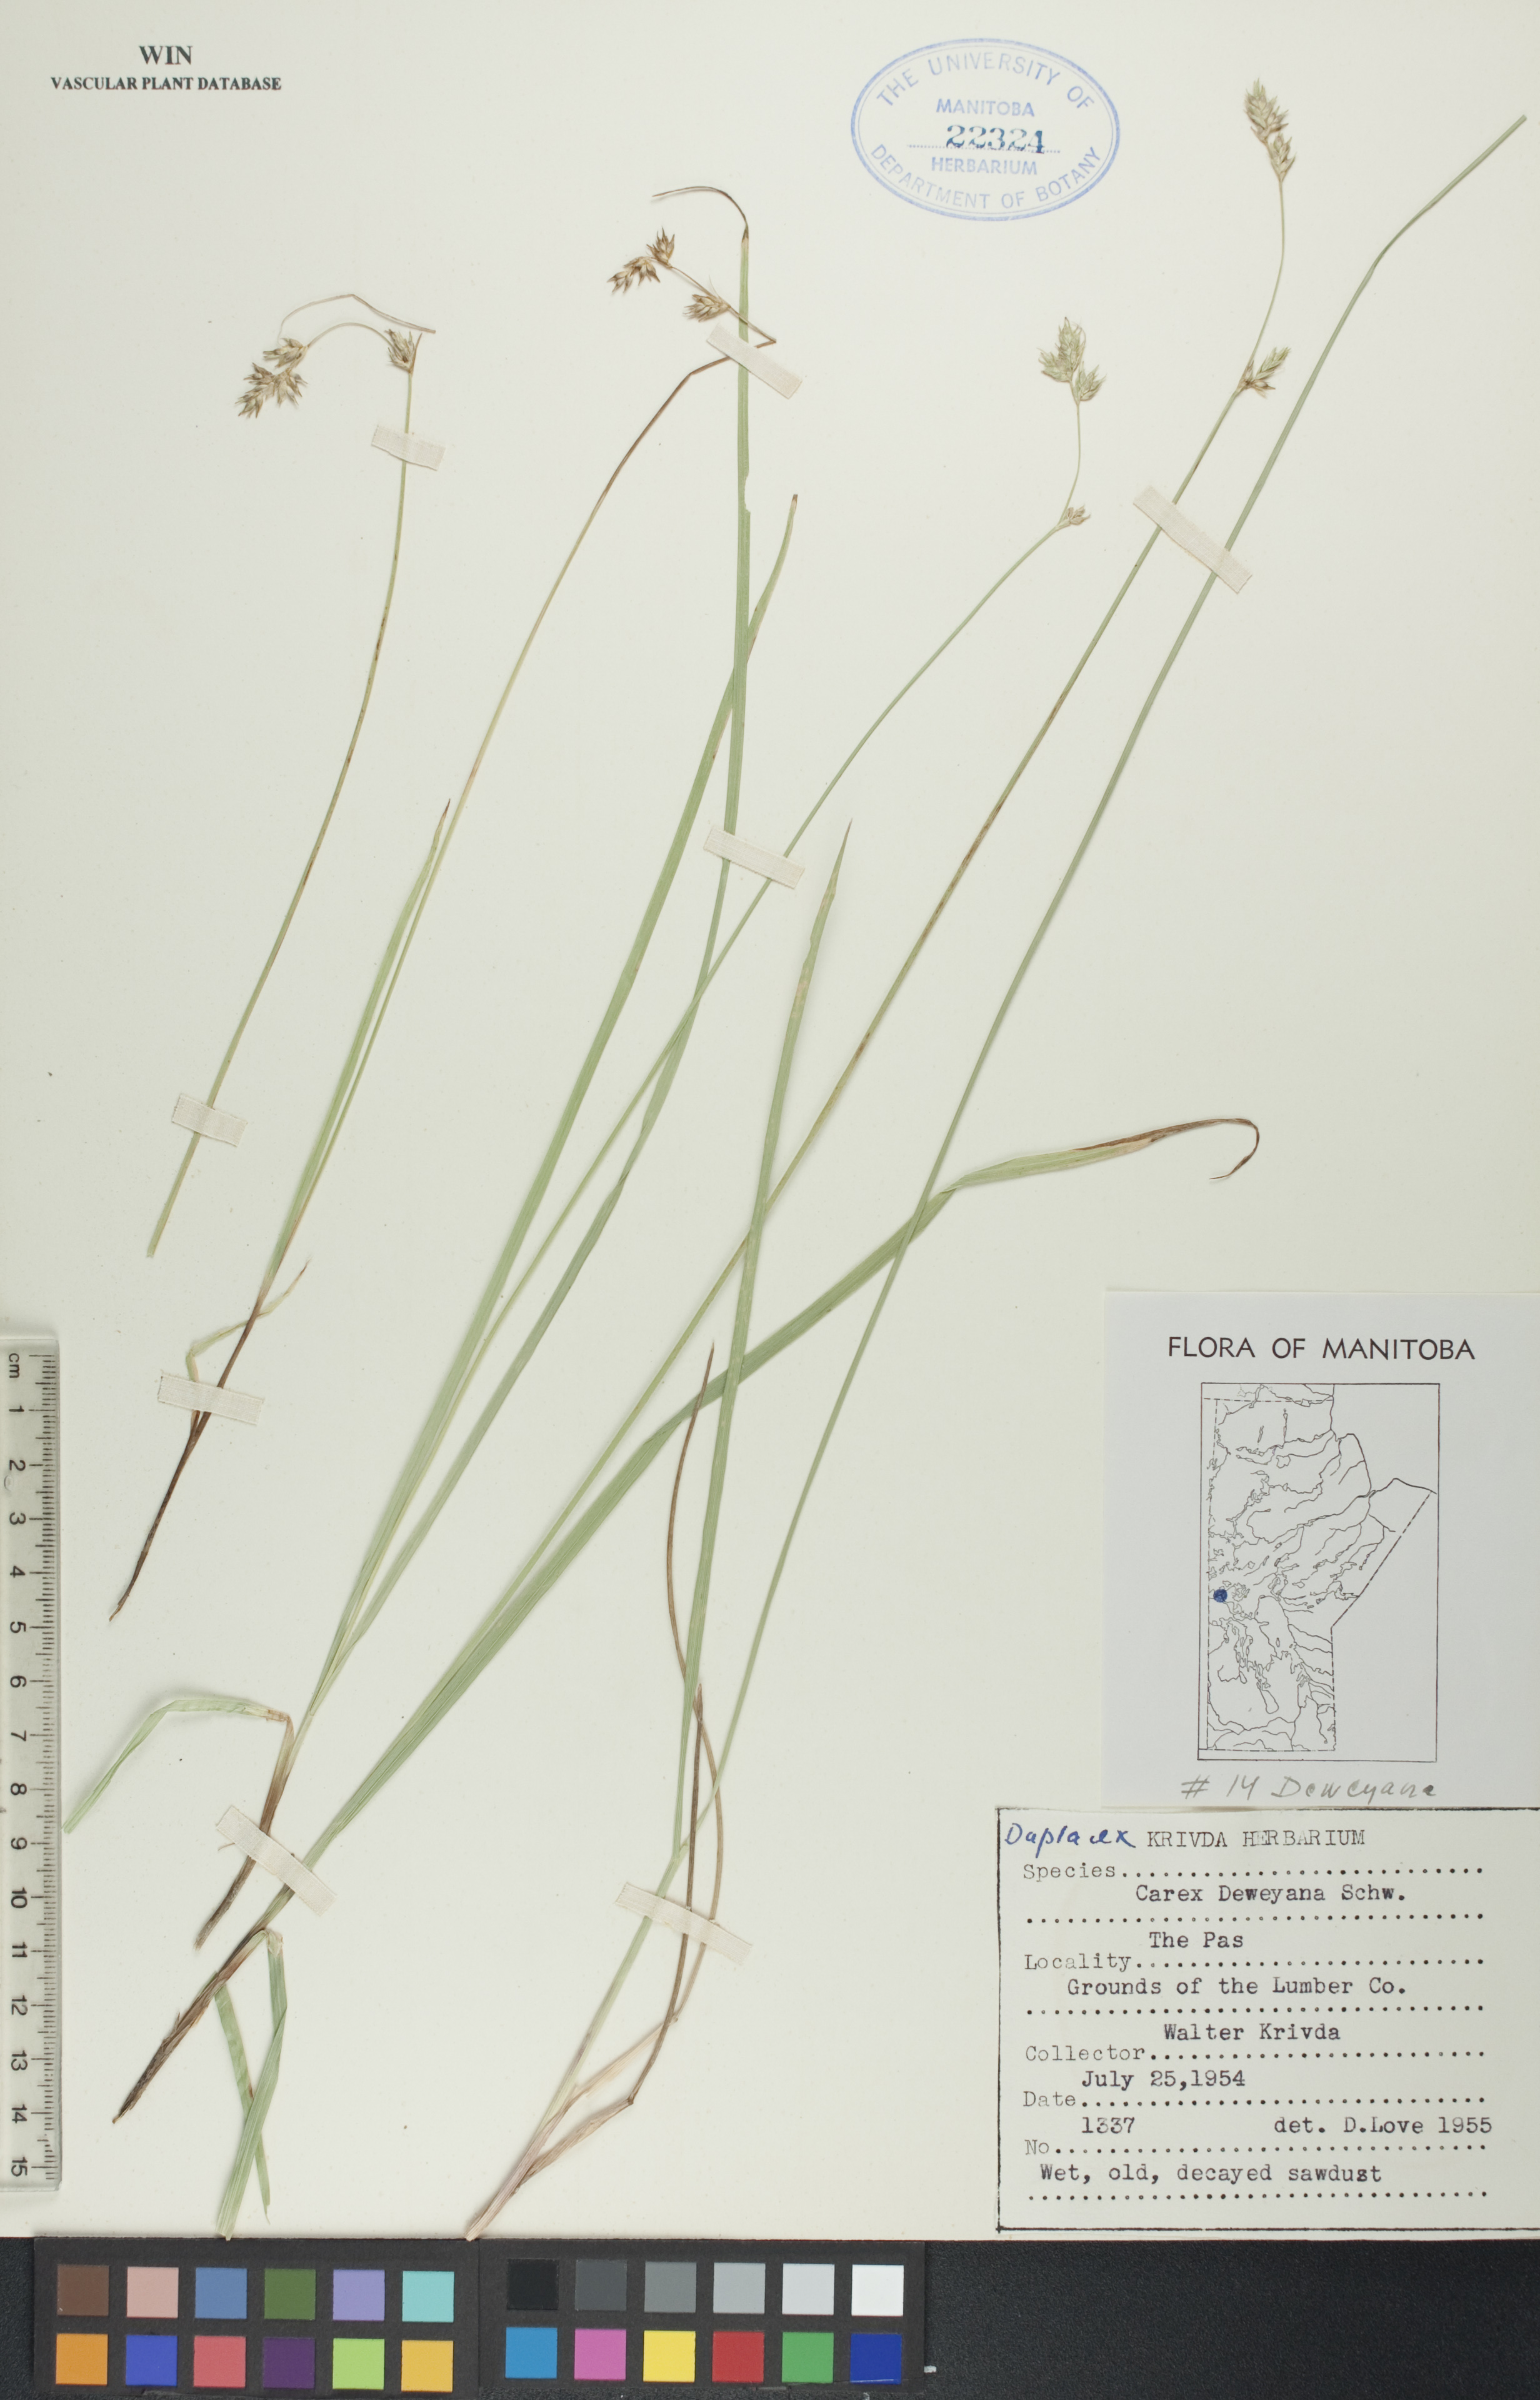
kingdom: Plantae
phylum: Tracheophyta
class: Liliopsida
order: Poales
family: Cyperaceae
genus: Carex
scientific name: Carex deweyana
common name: Dewey's sedge
